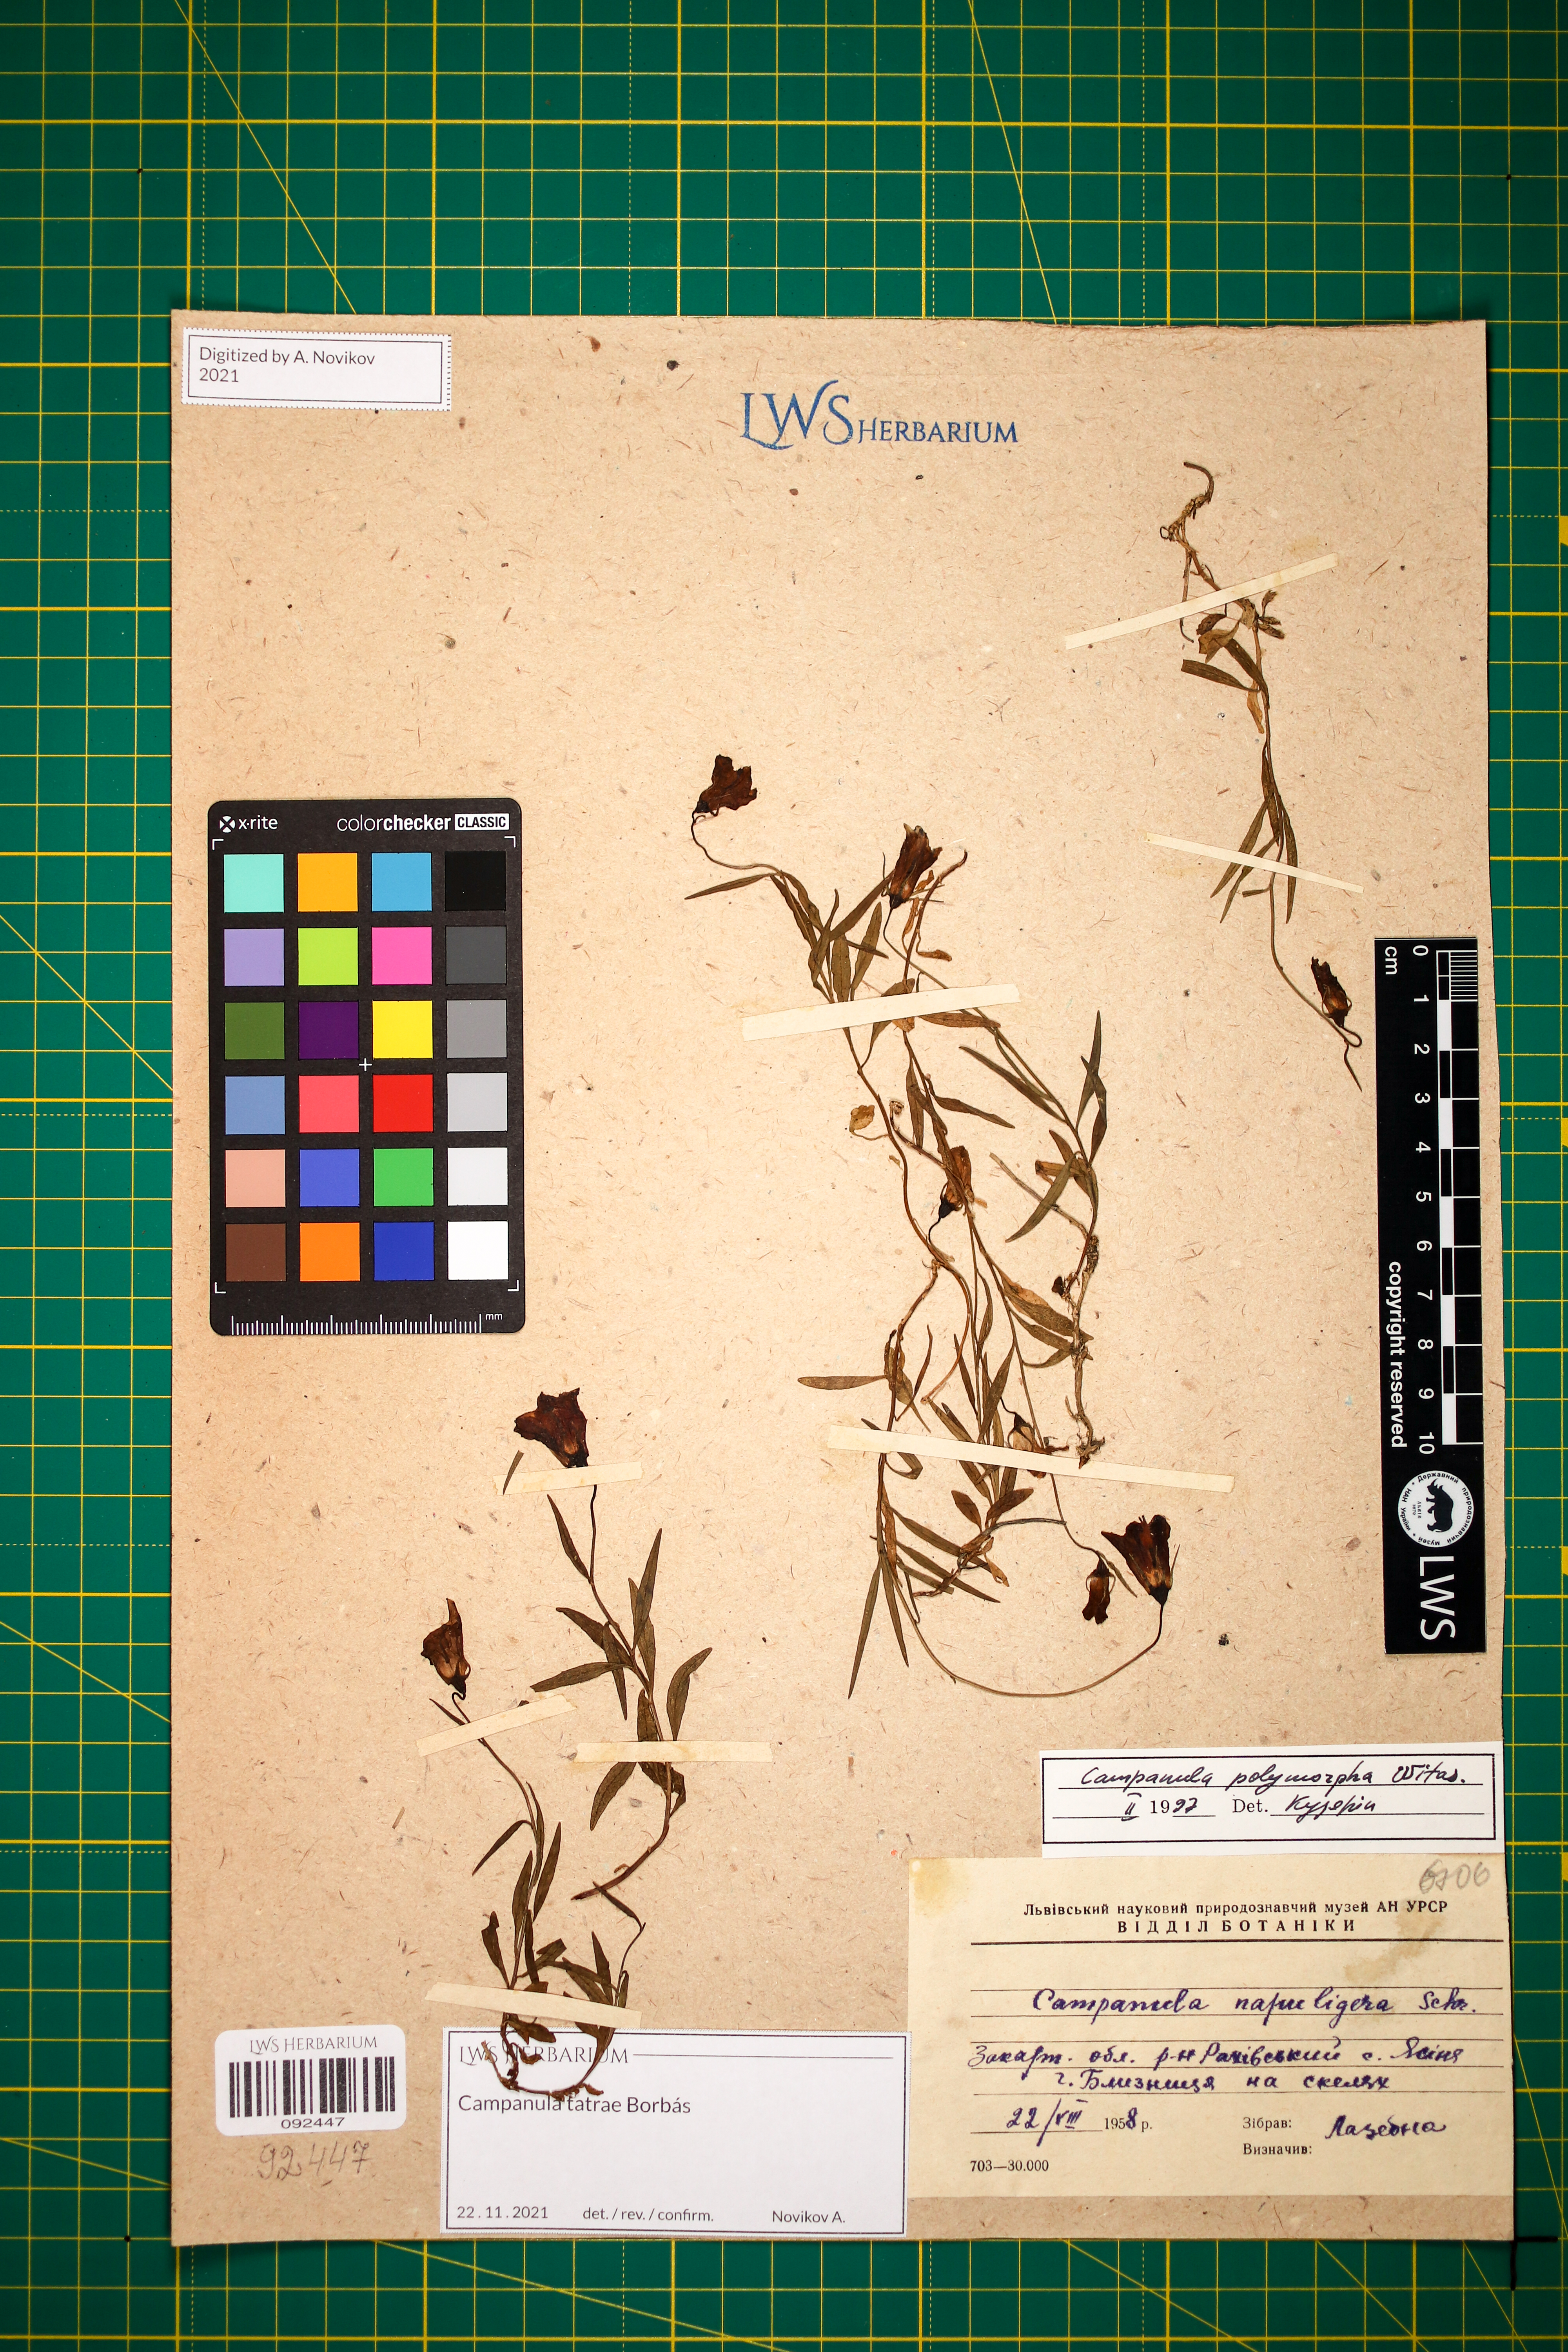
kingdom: Plantae
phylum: Tracheophyta
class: Magnoliopsida
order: Asterales
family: Campanulaceae
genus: Campanula
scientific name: Campanula tatrae
